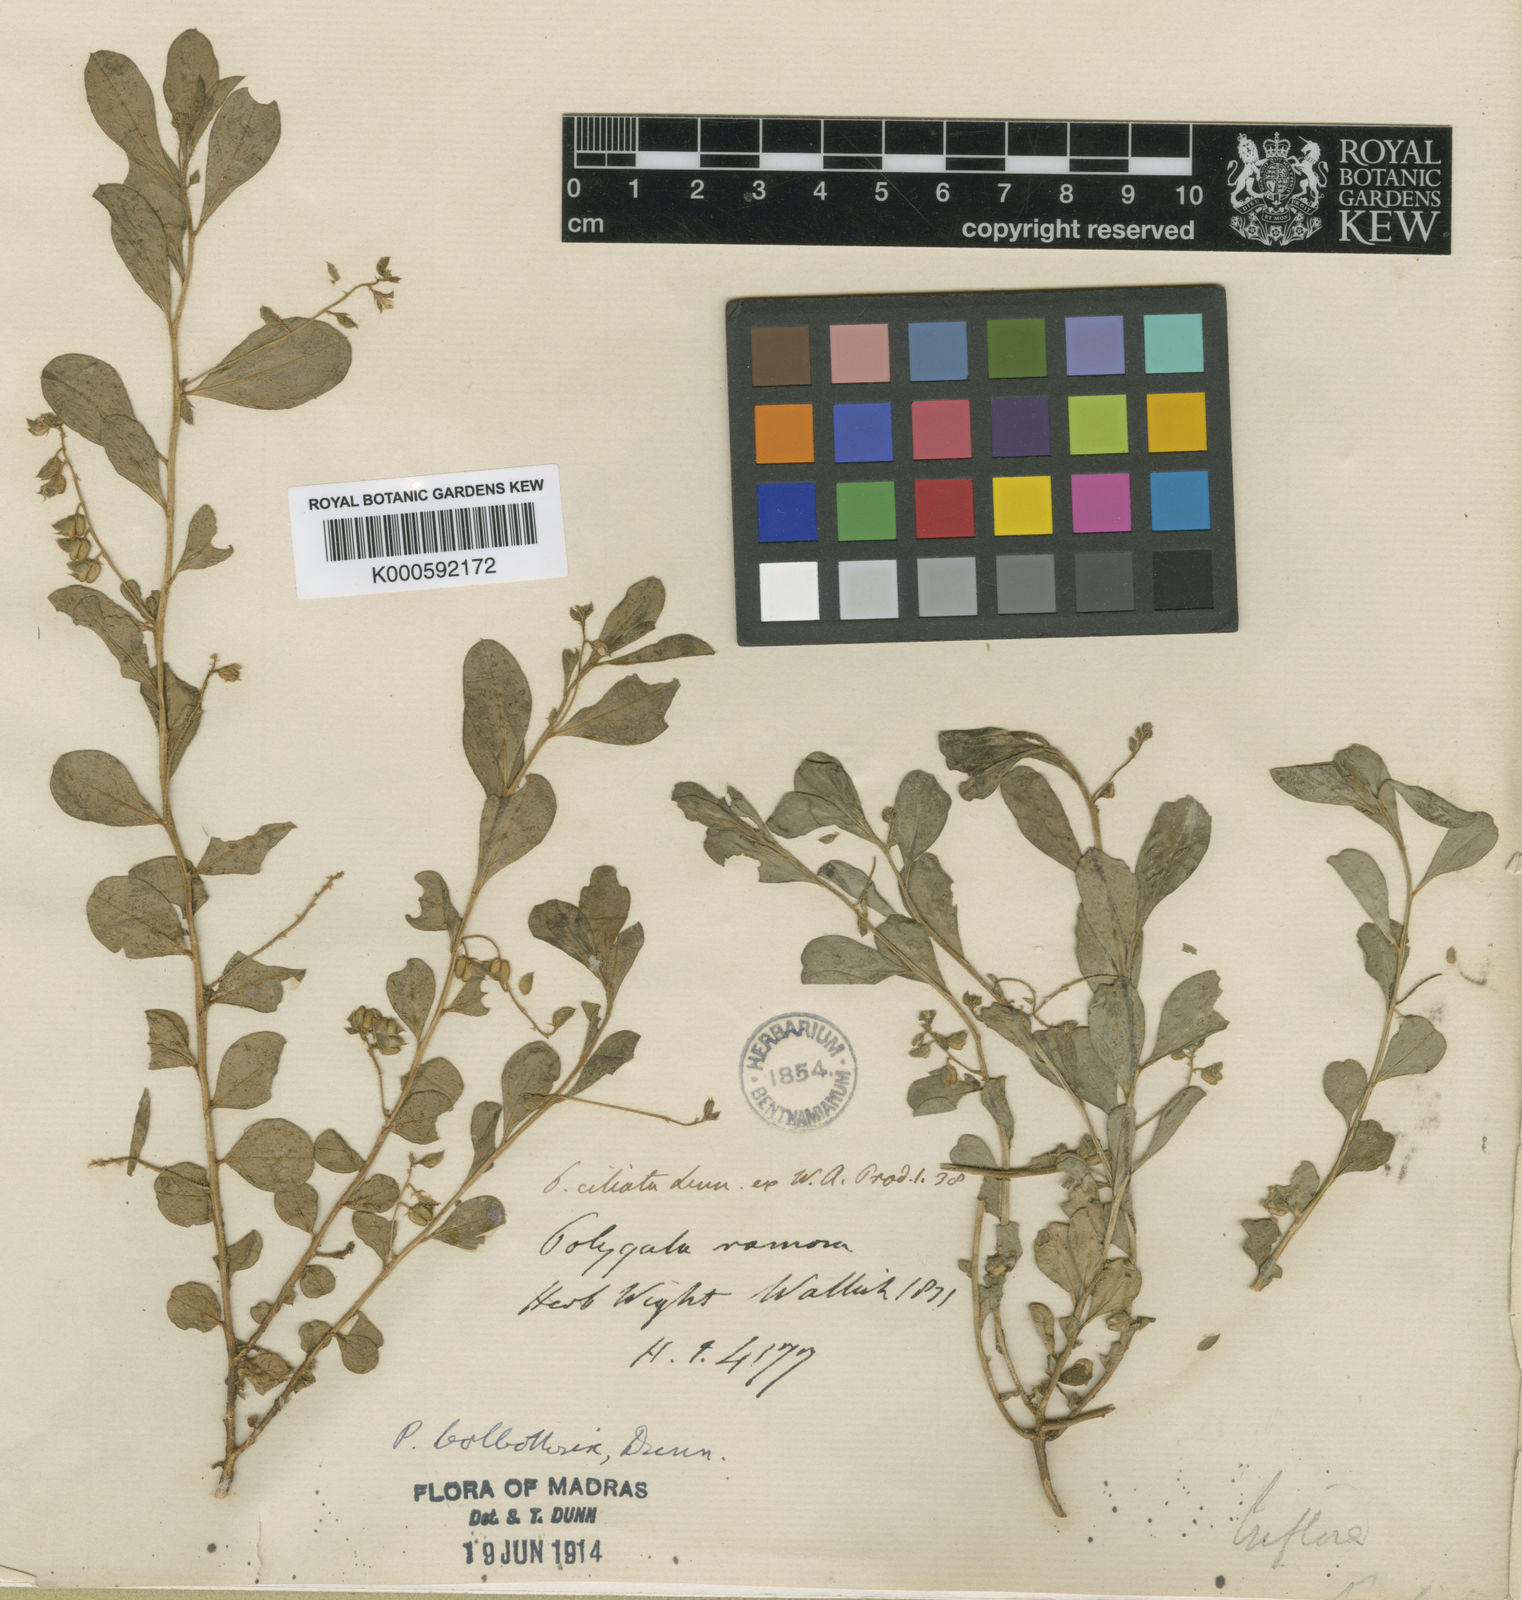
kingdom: Plantae
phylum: Tracheophyta
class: Magnoliopsida
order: Fabales
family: Polygalaceae
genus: Polygala
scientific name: Polygala bolbothrix
